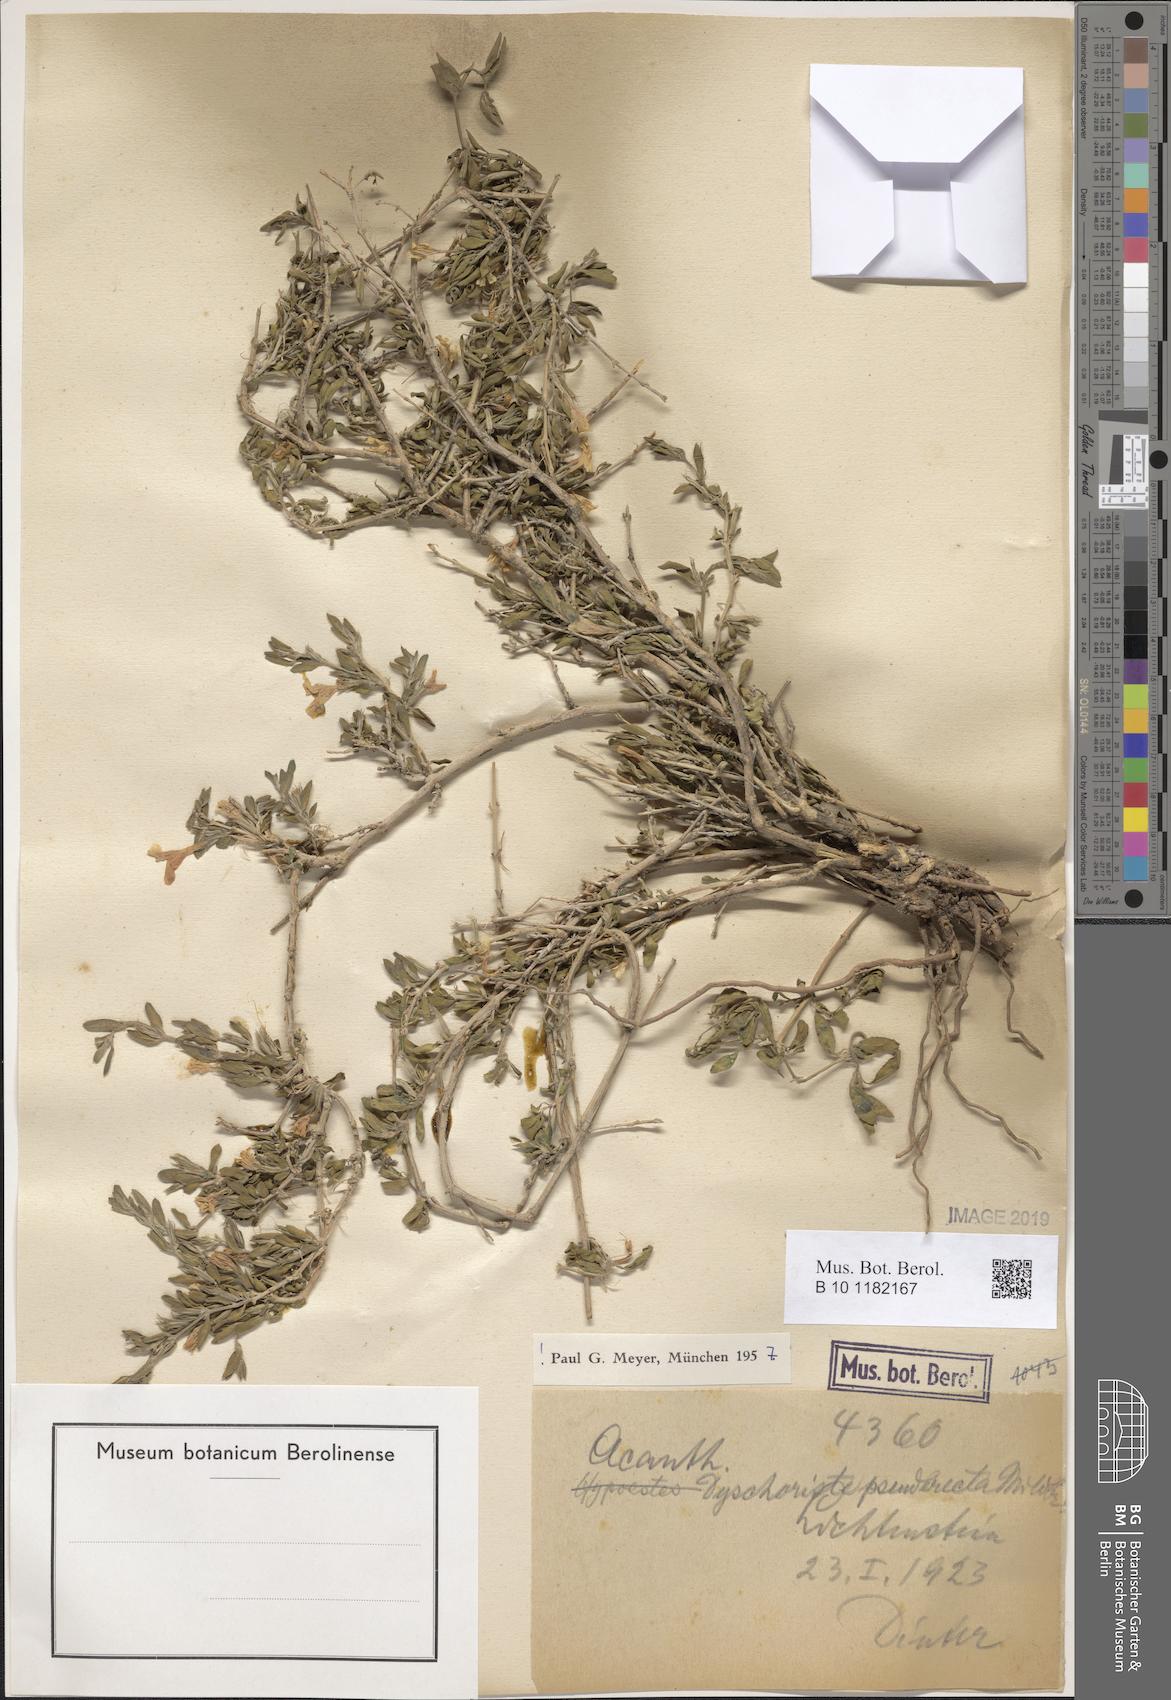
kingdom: Plantae
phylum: Tracheophyta
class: Magnoliopsida
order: Lamiales
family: Acanthaceae
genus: Dyschoriste
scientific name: Dyschoriste pseuderecta
